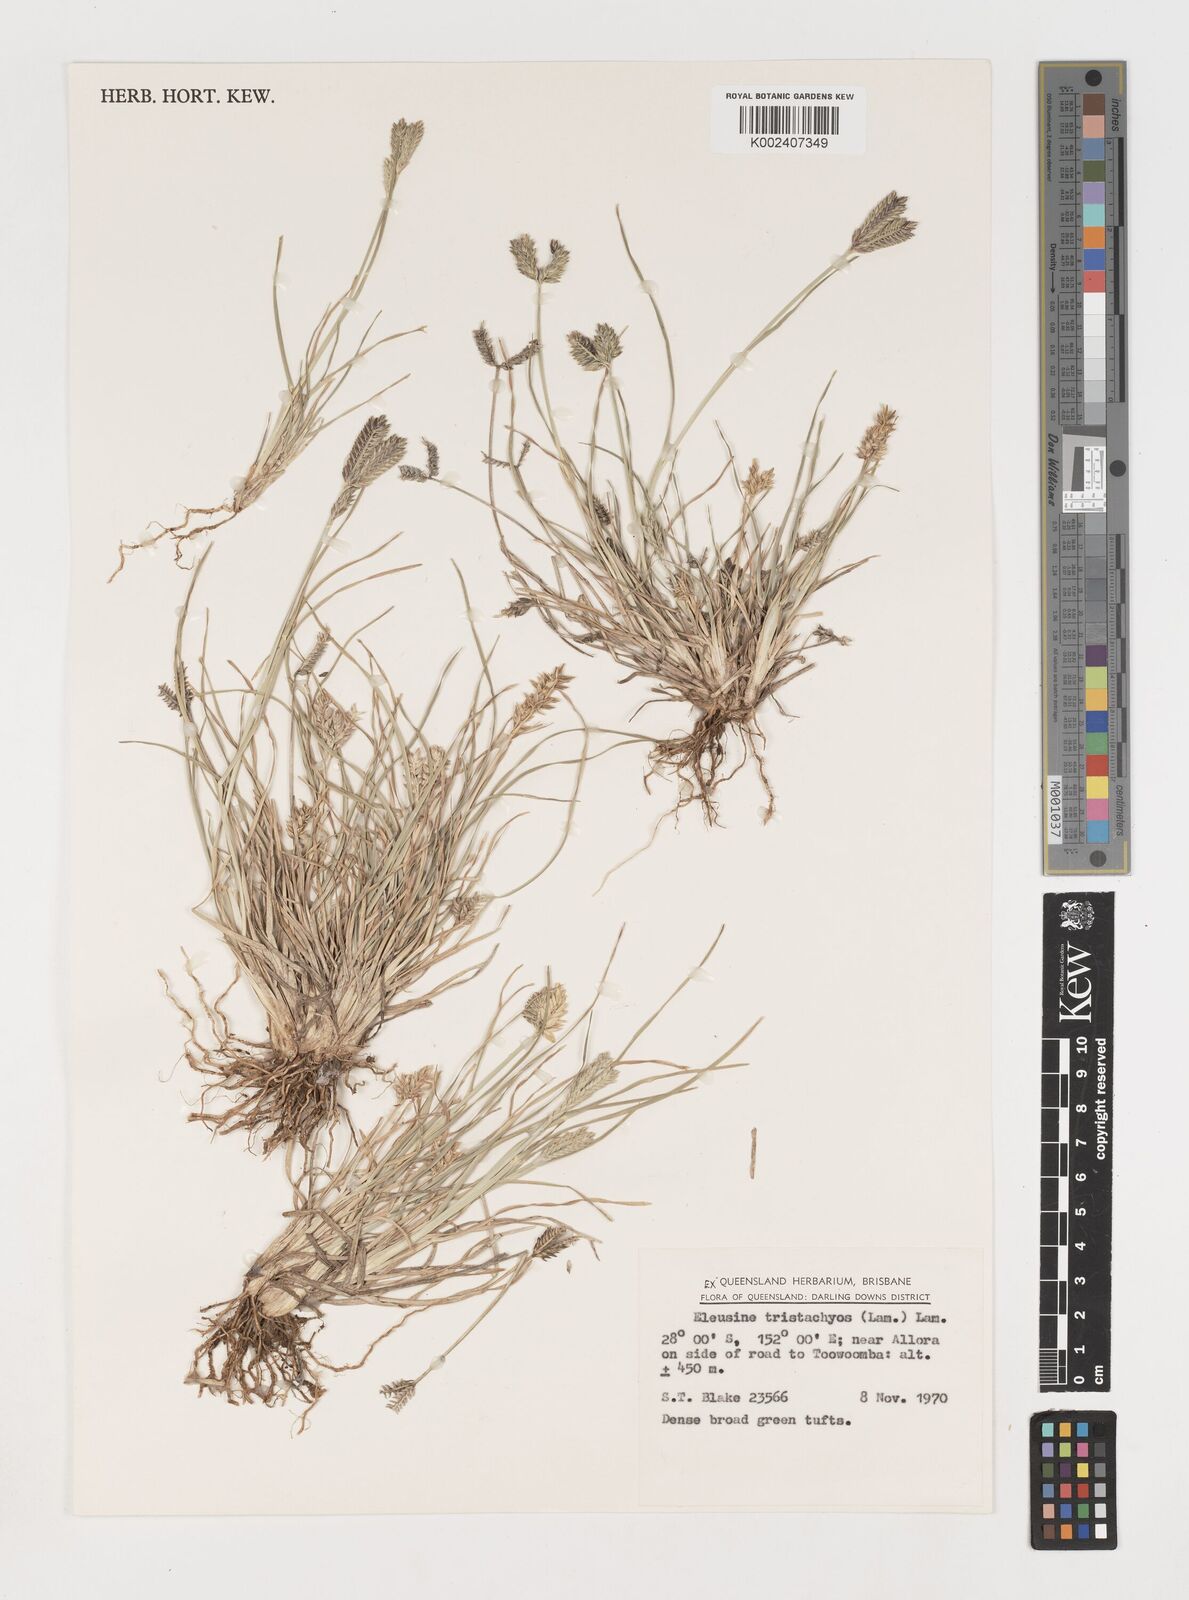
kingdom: Plantae
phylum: Tracheophyta
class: Liliopsida
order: Poales
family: Poaceae
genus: Eleusine
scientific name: Eleusine tristachya
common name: American yard-grass
